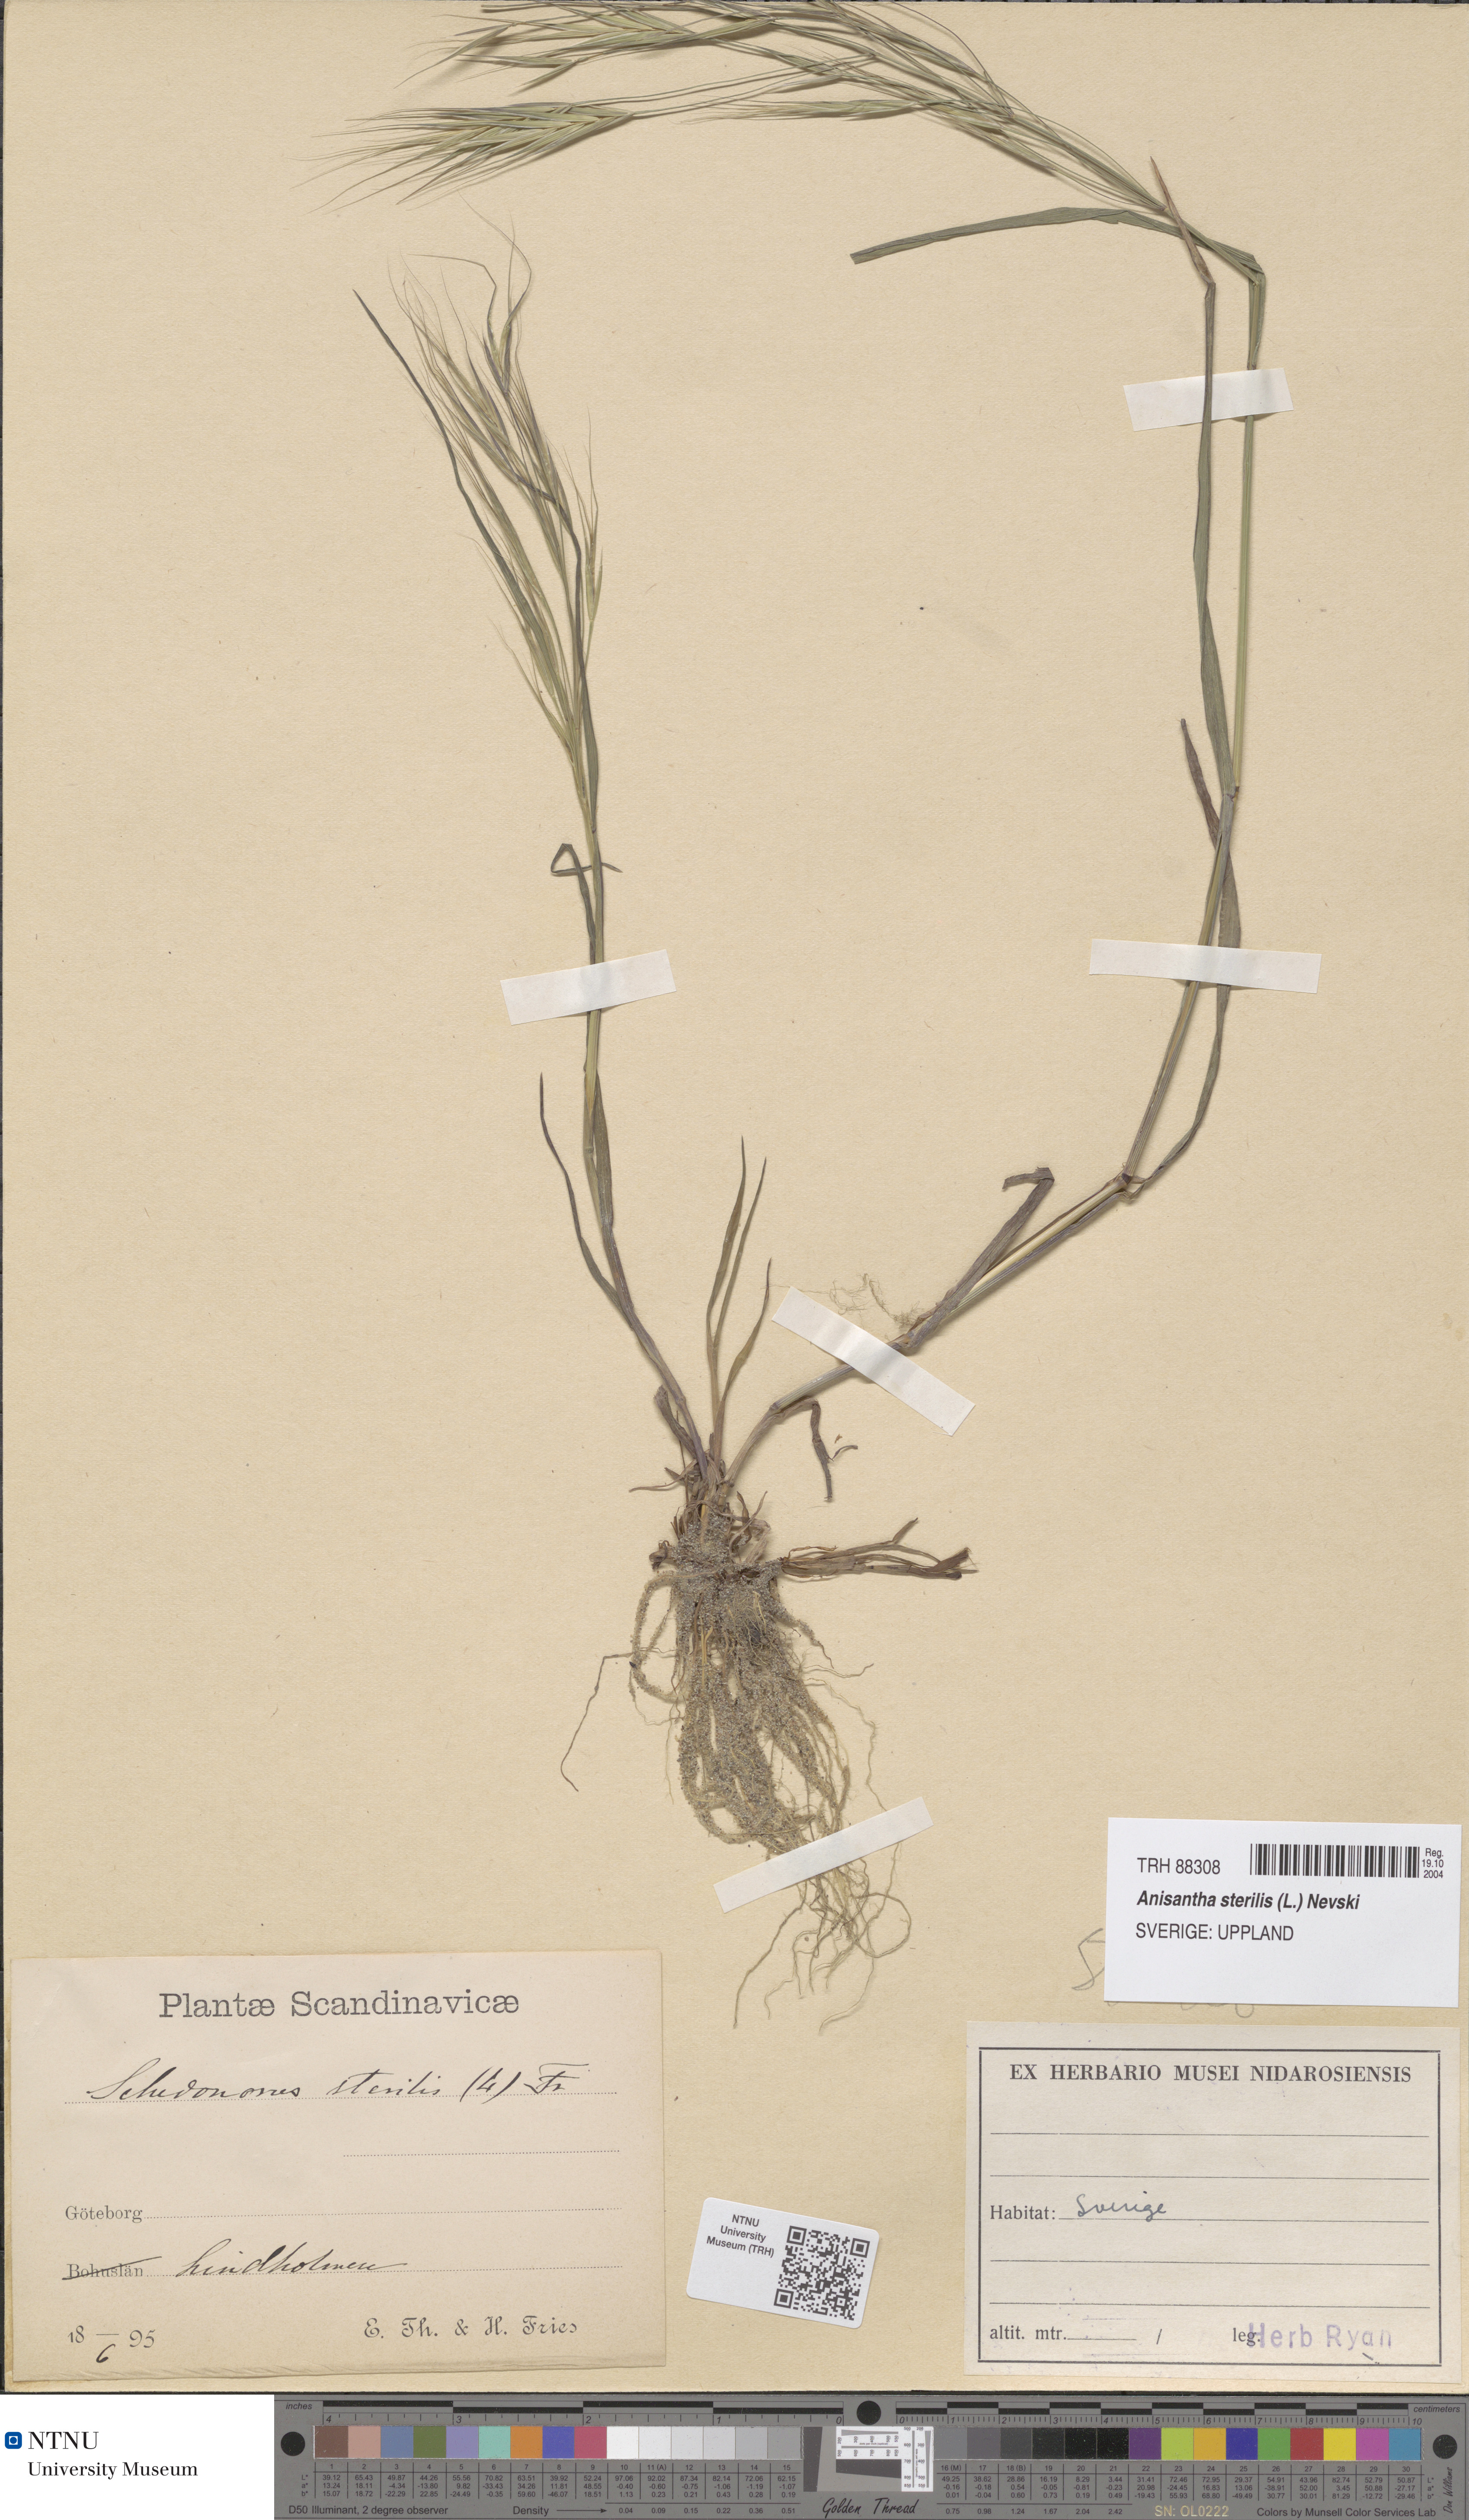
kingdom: Plantae
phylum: Tracheophyta
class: Liliopsida
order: Poales
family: Poaceae
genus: Bromus
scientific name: Bromus sterilis
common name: Poverty brome
